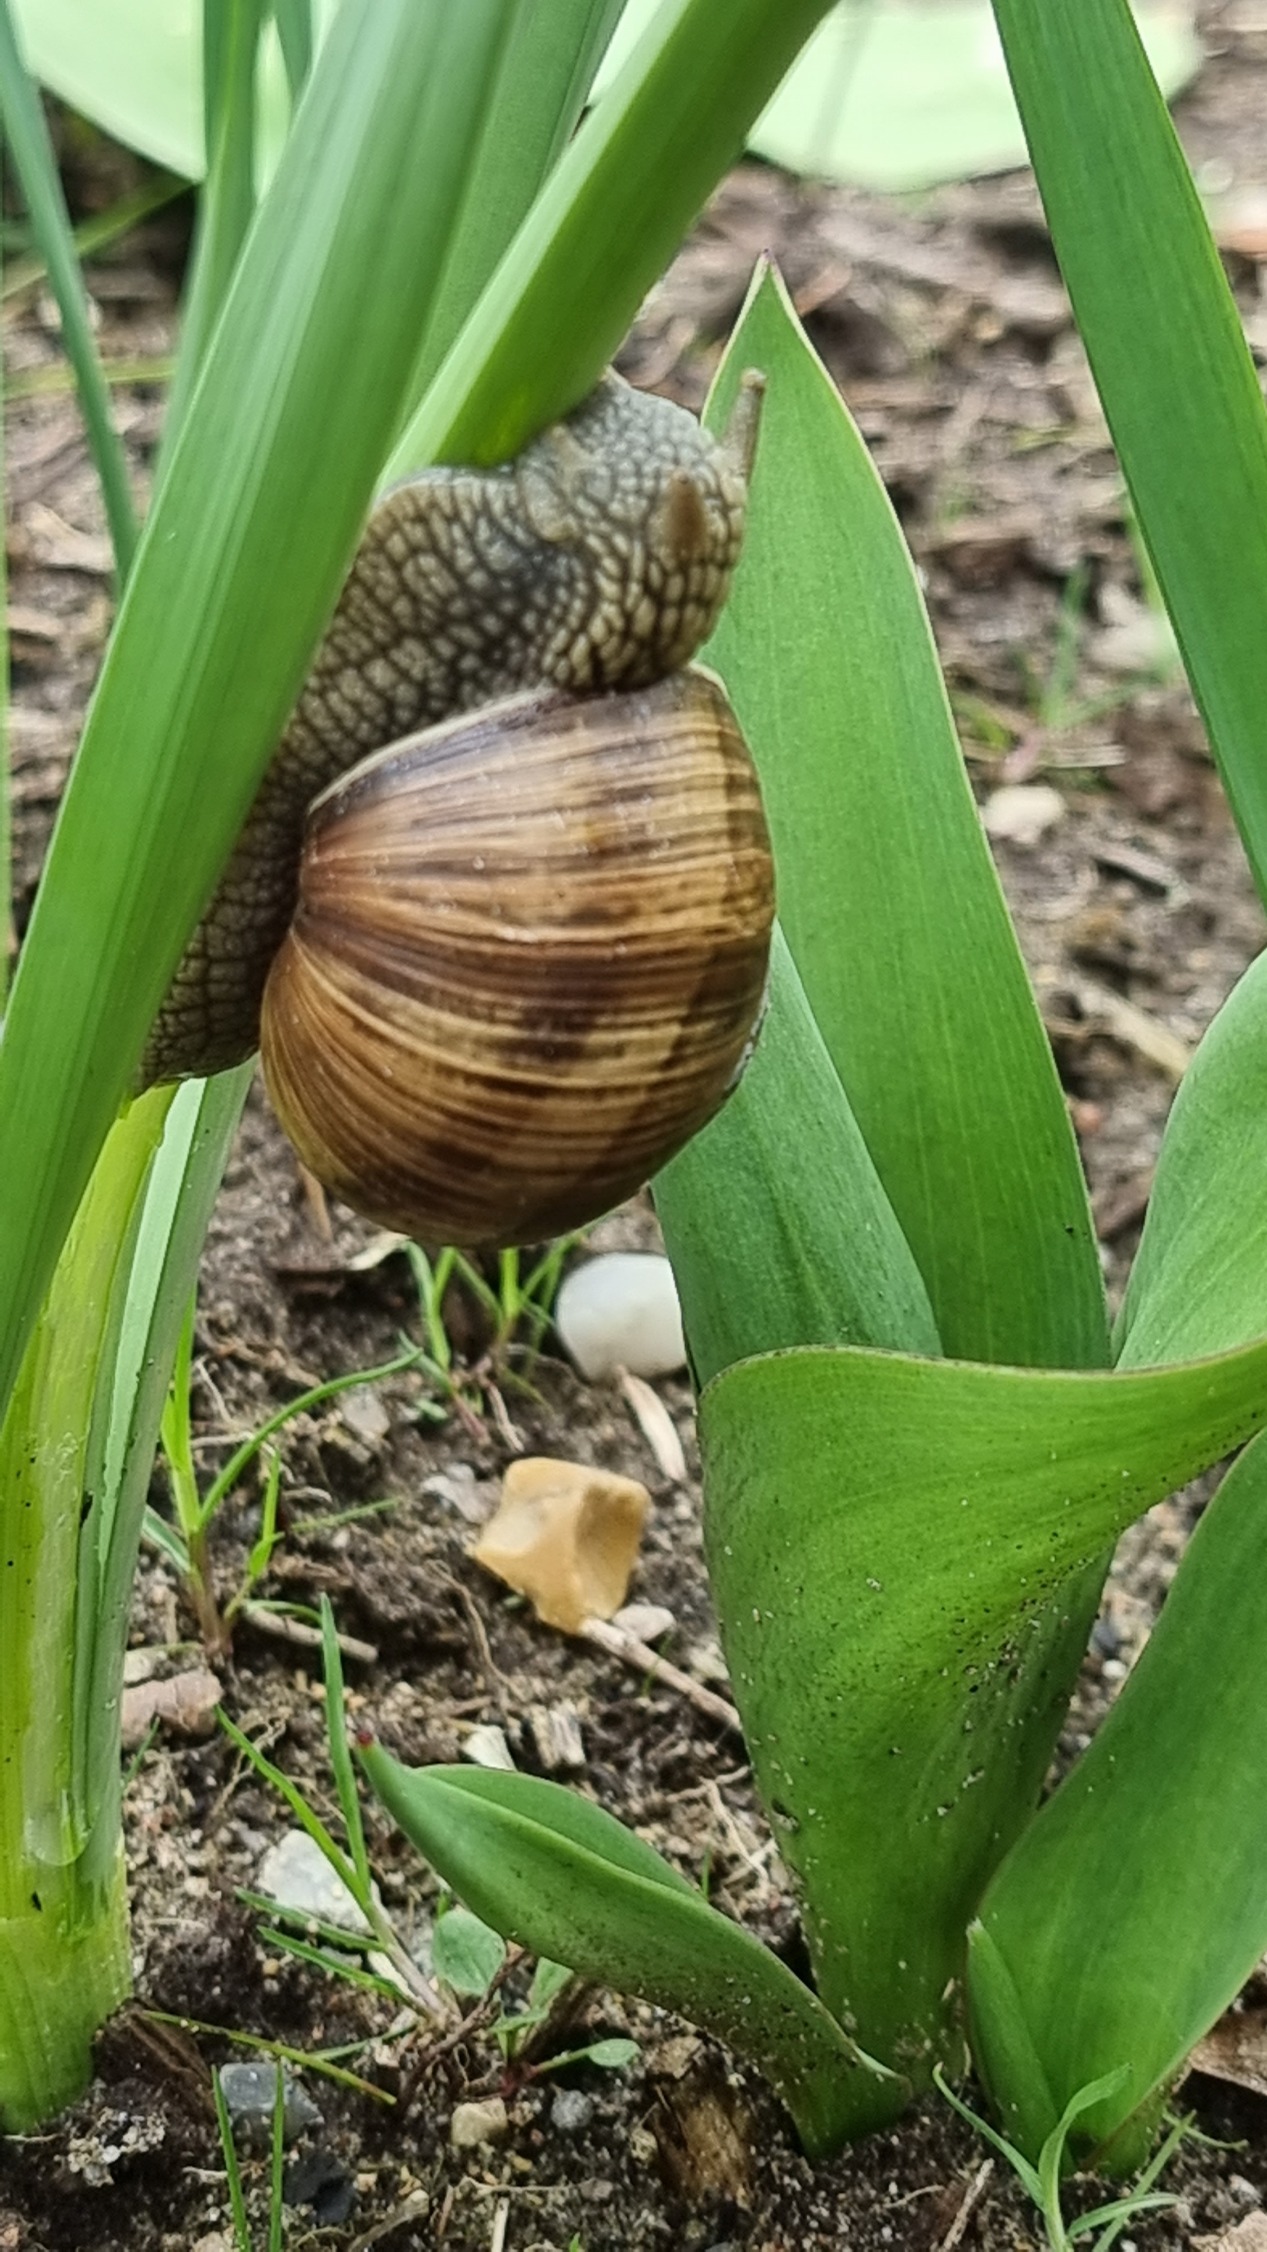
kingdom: Animalia
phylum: Mollusca
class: Gastropoda
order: Stylommatophora
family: Helicidae
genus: Helix
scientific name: Helix pomatia
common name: Vinbjergsnegl
